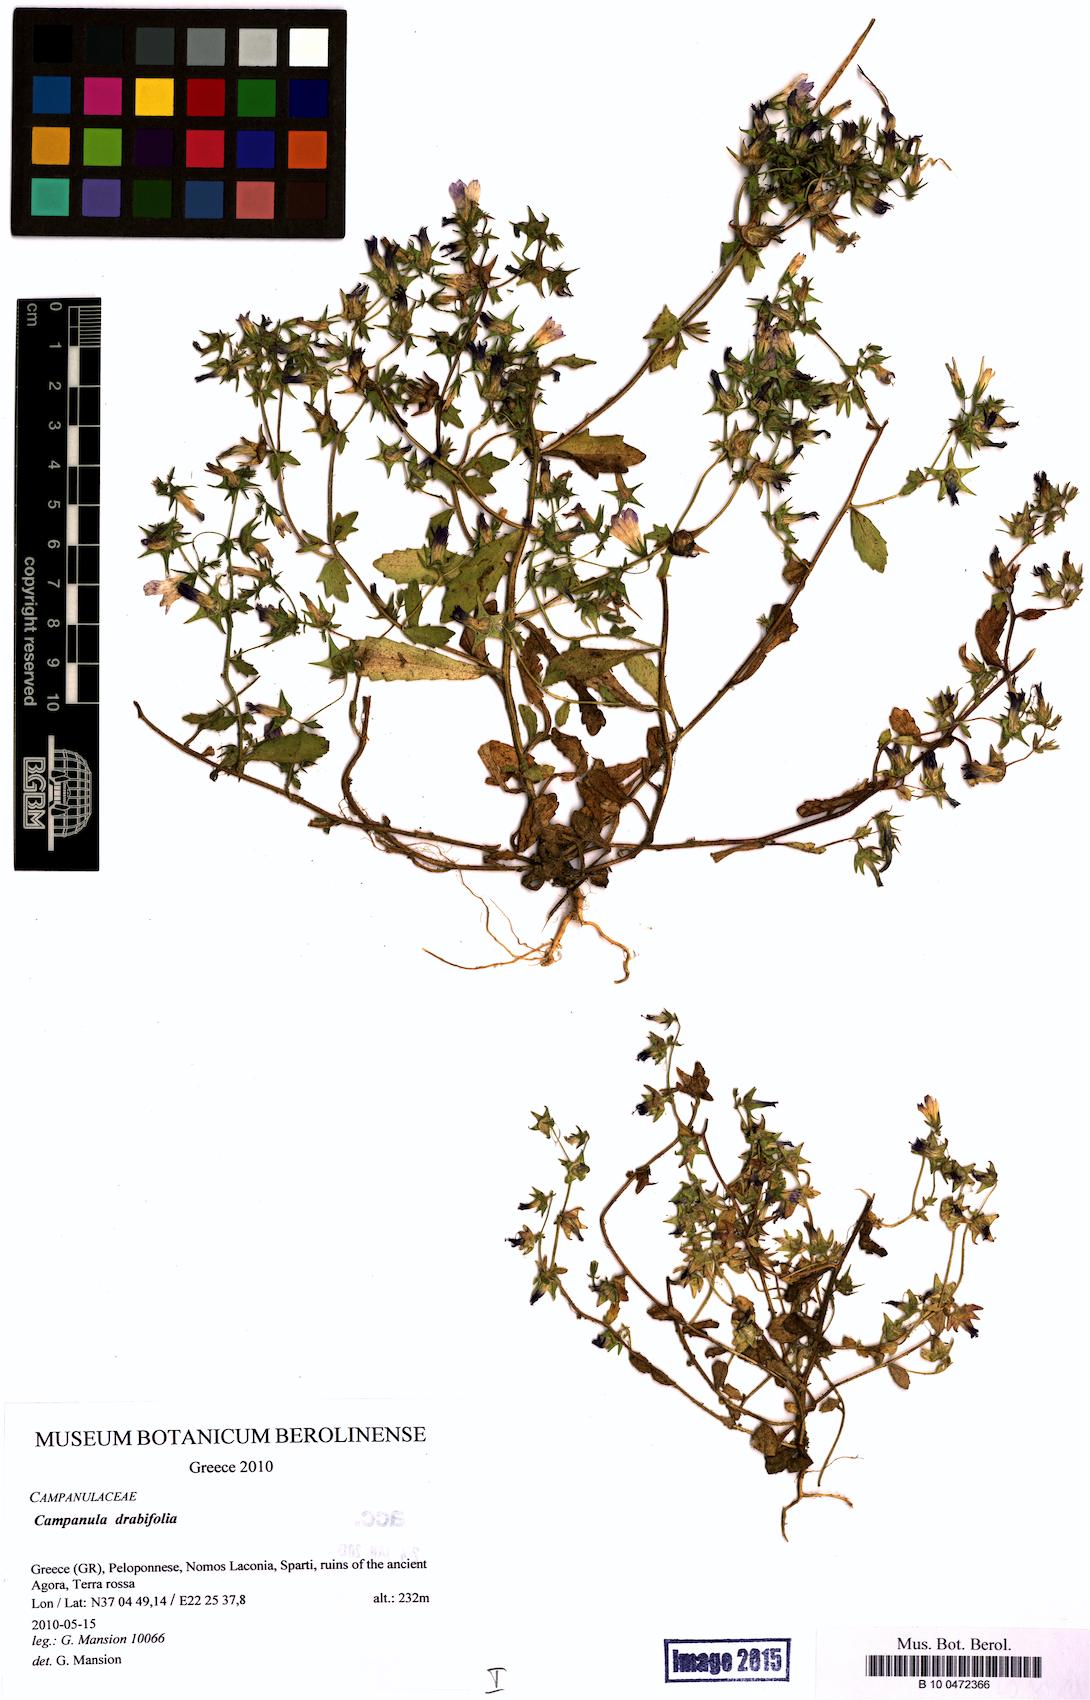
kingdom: Plantae
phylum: Tracheophyta
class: Magnoliopsida
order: Asterales
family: Campanulaceae
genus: Campanula
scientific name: Campanula drabifolia
